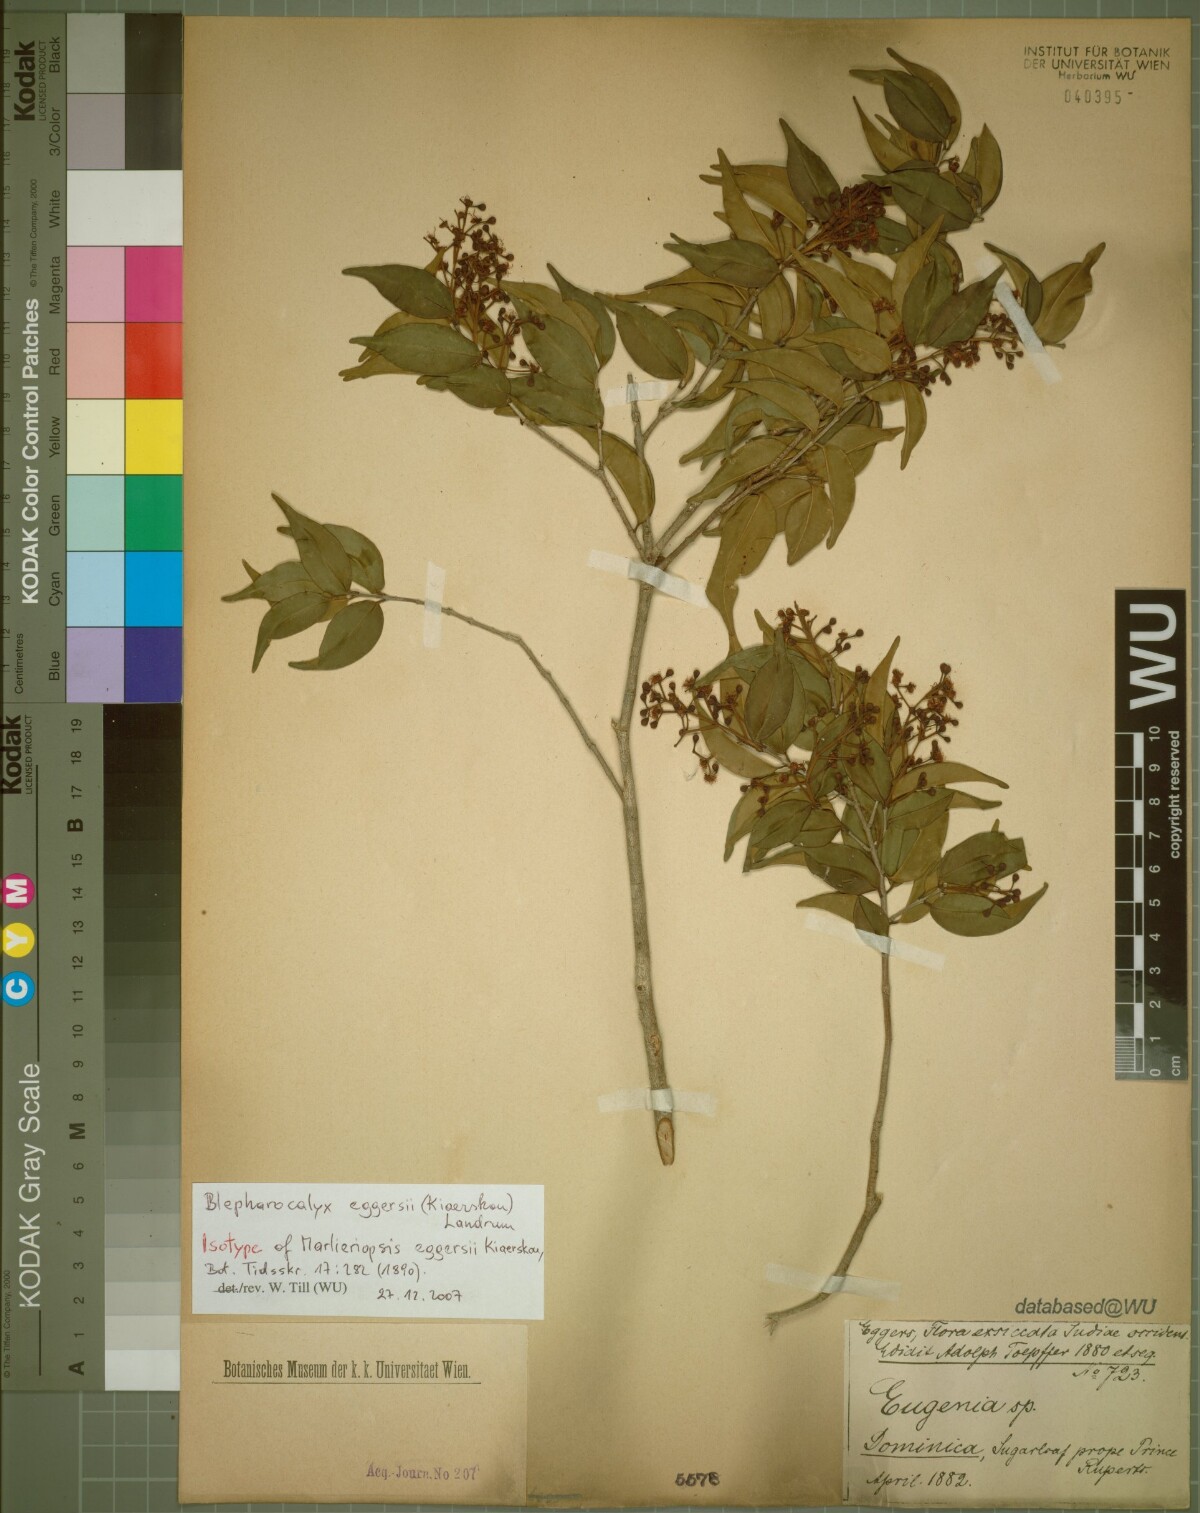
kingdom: Plantae
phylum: Tracheophyta
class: Magnoliopsida
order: Myrtales
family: Myrtaceae
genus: Blepharocalyx
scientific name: Blepharocalyx eggersii
